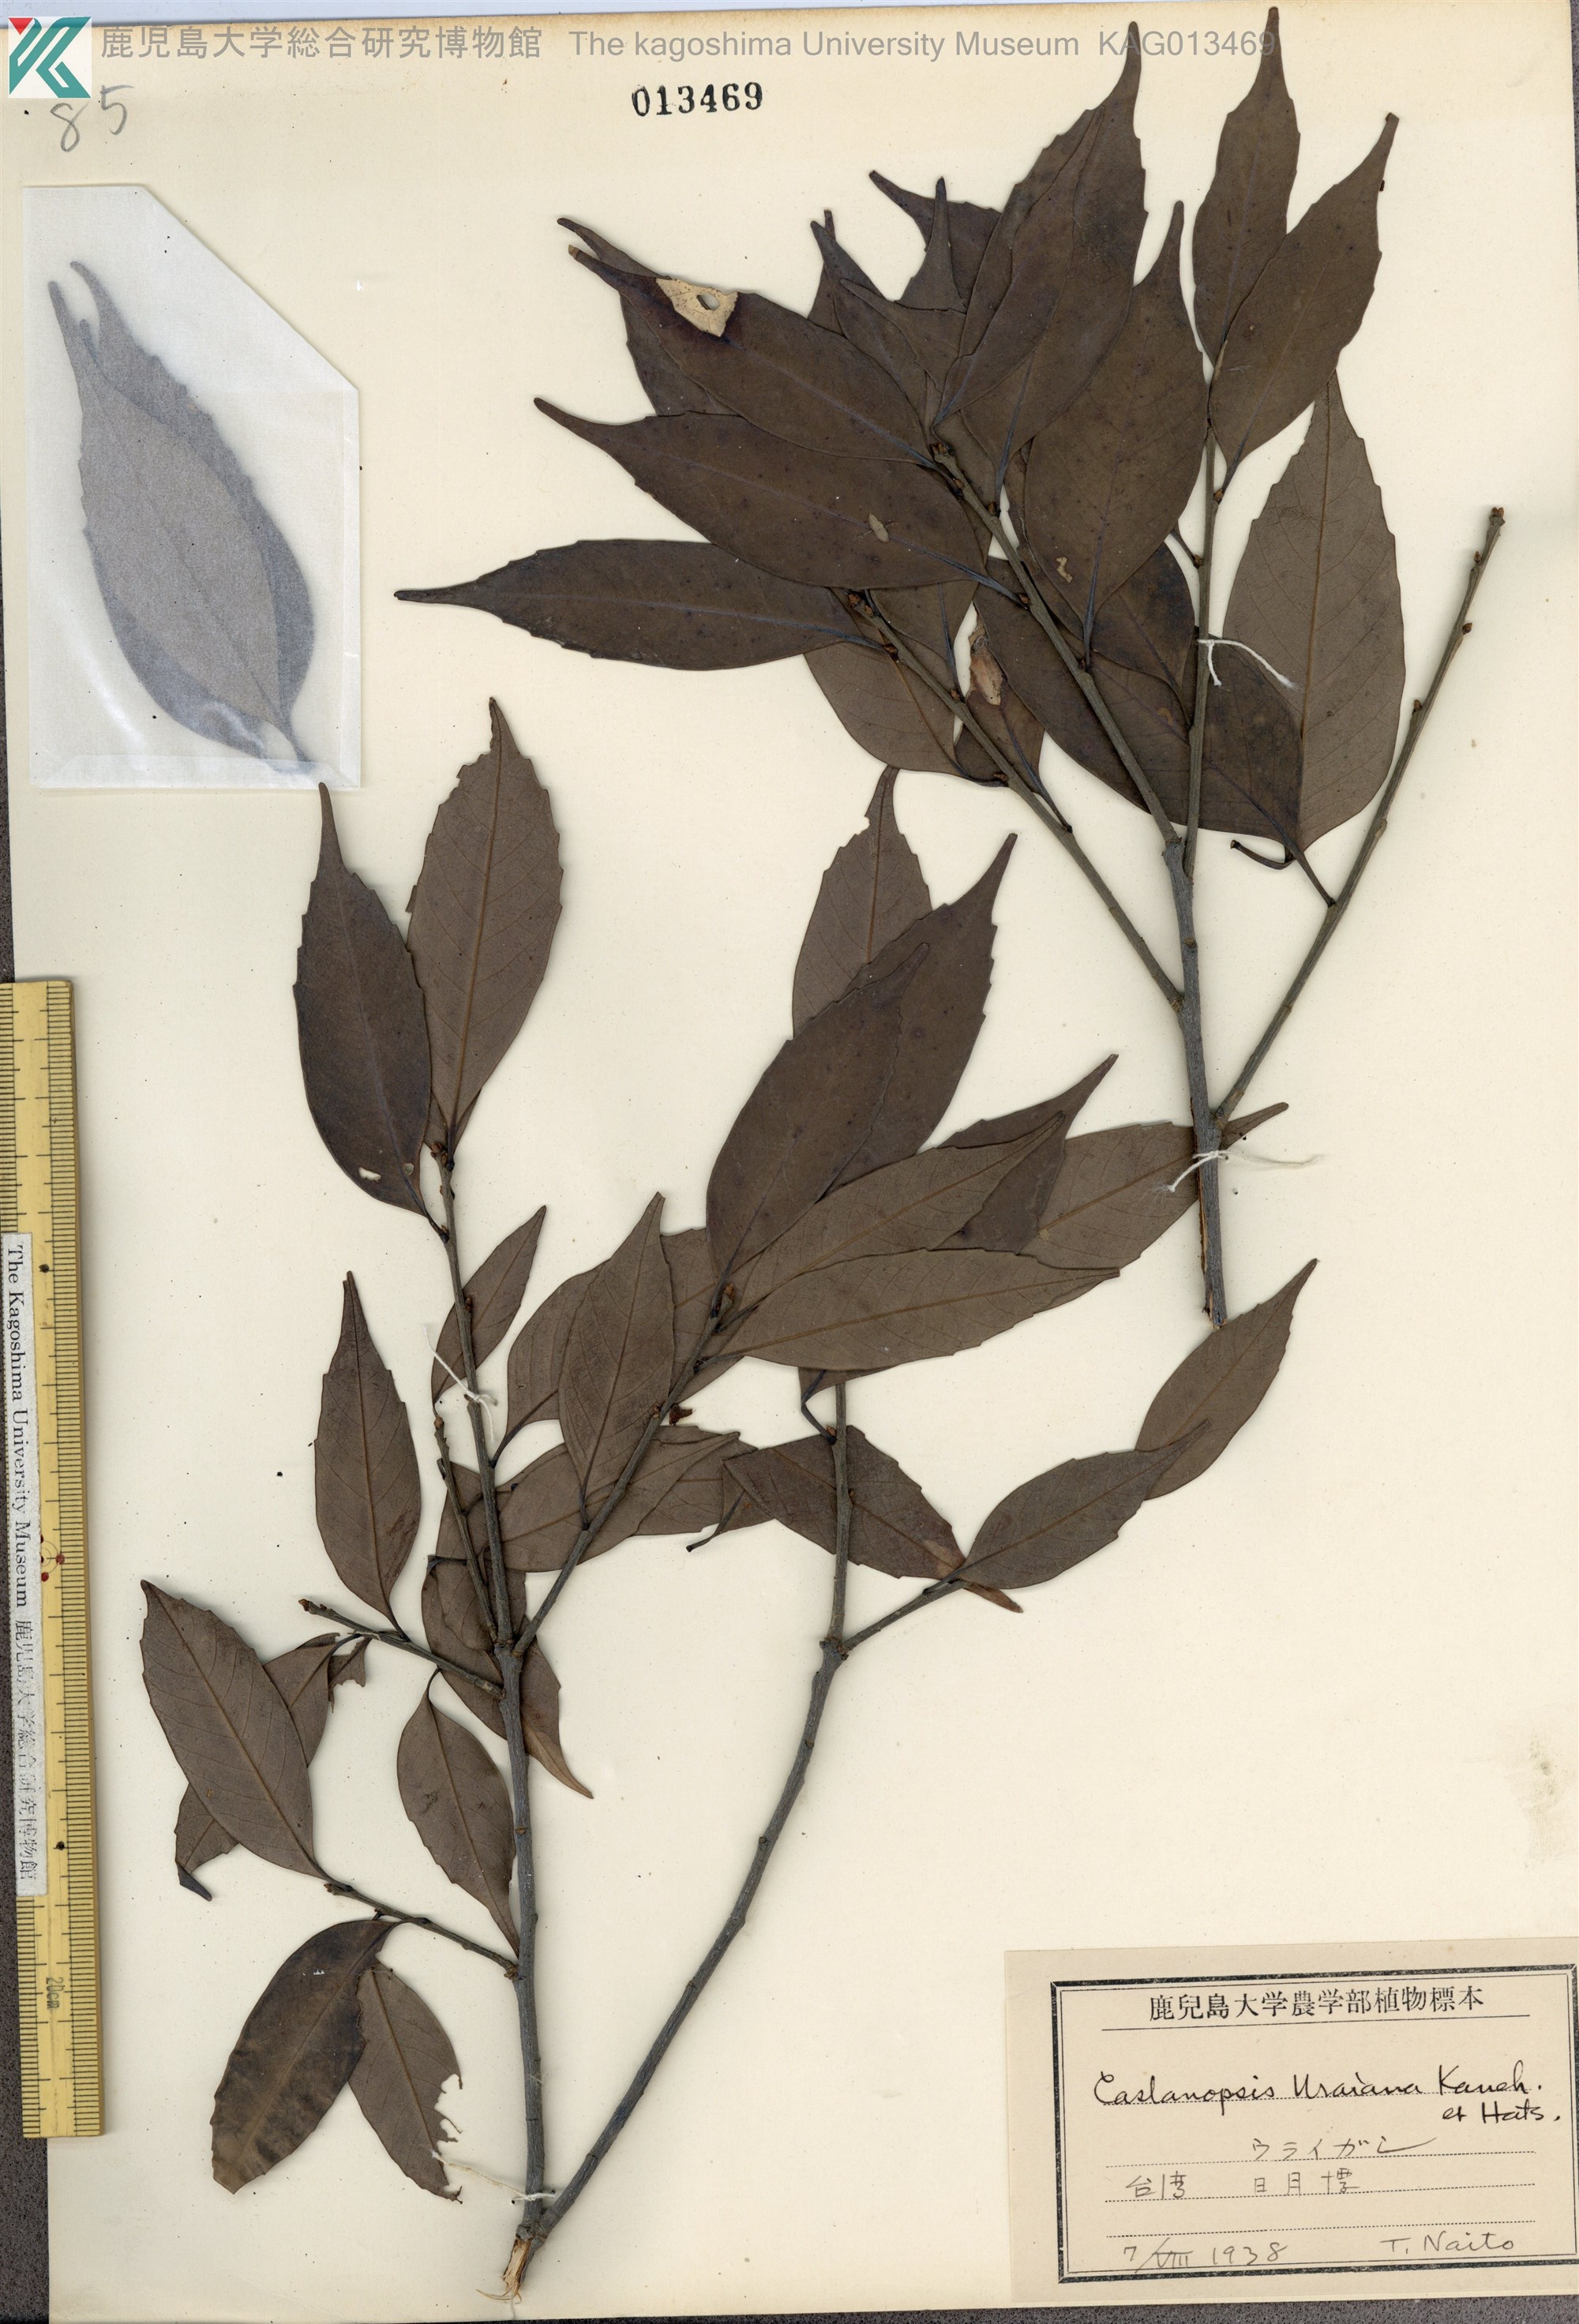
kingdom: Plantae
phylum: Tracheophyta
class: Magnoliopsida
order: Fagales
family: Fagaceae
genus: Lithocarpus
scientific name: Lithocarpus uraianus
